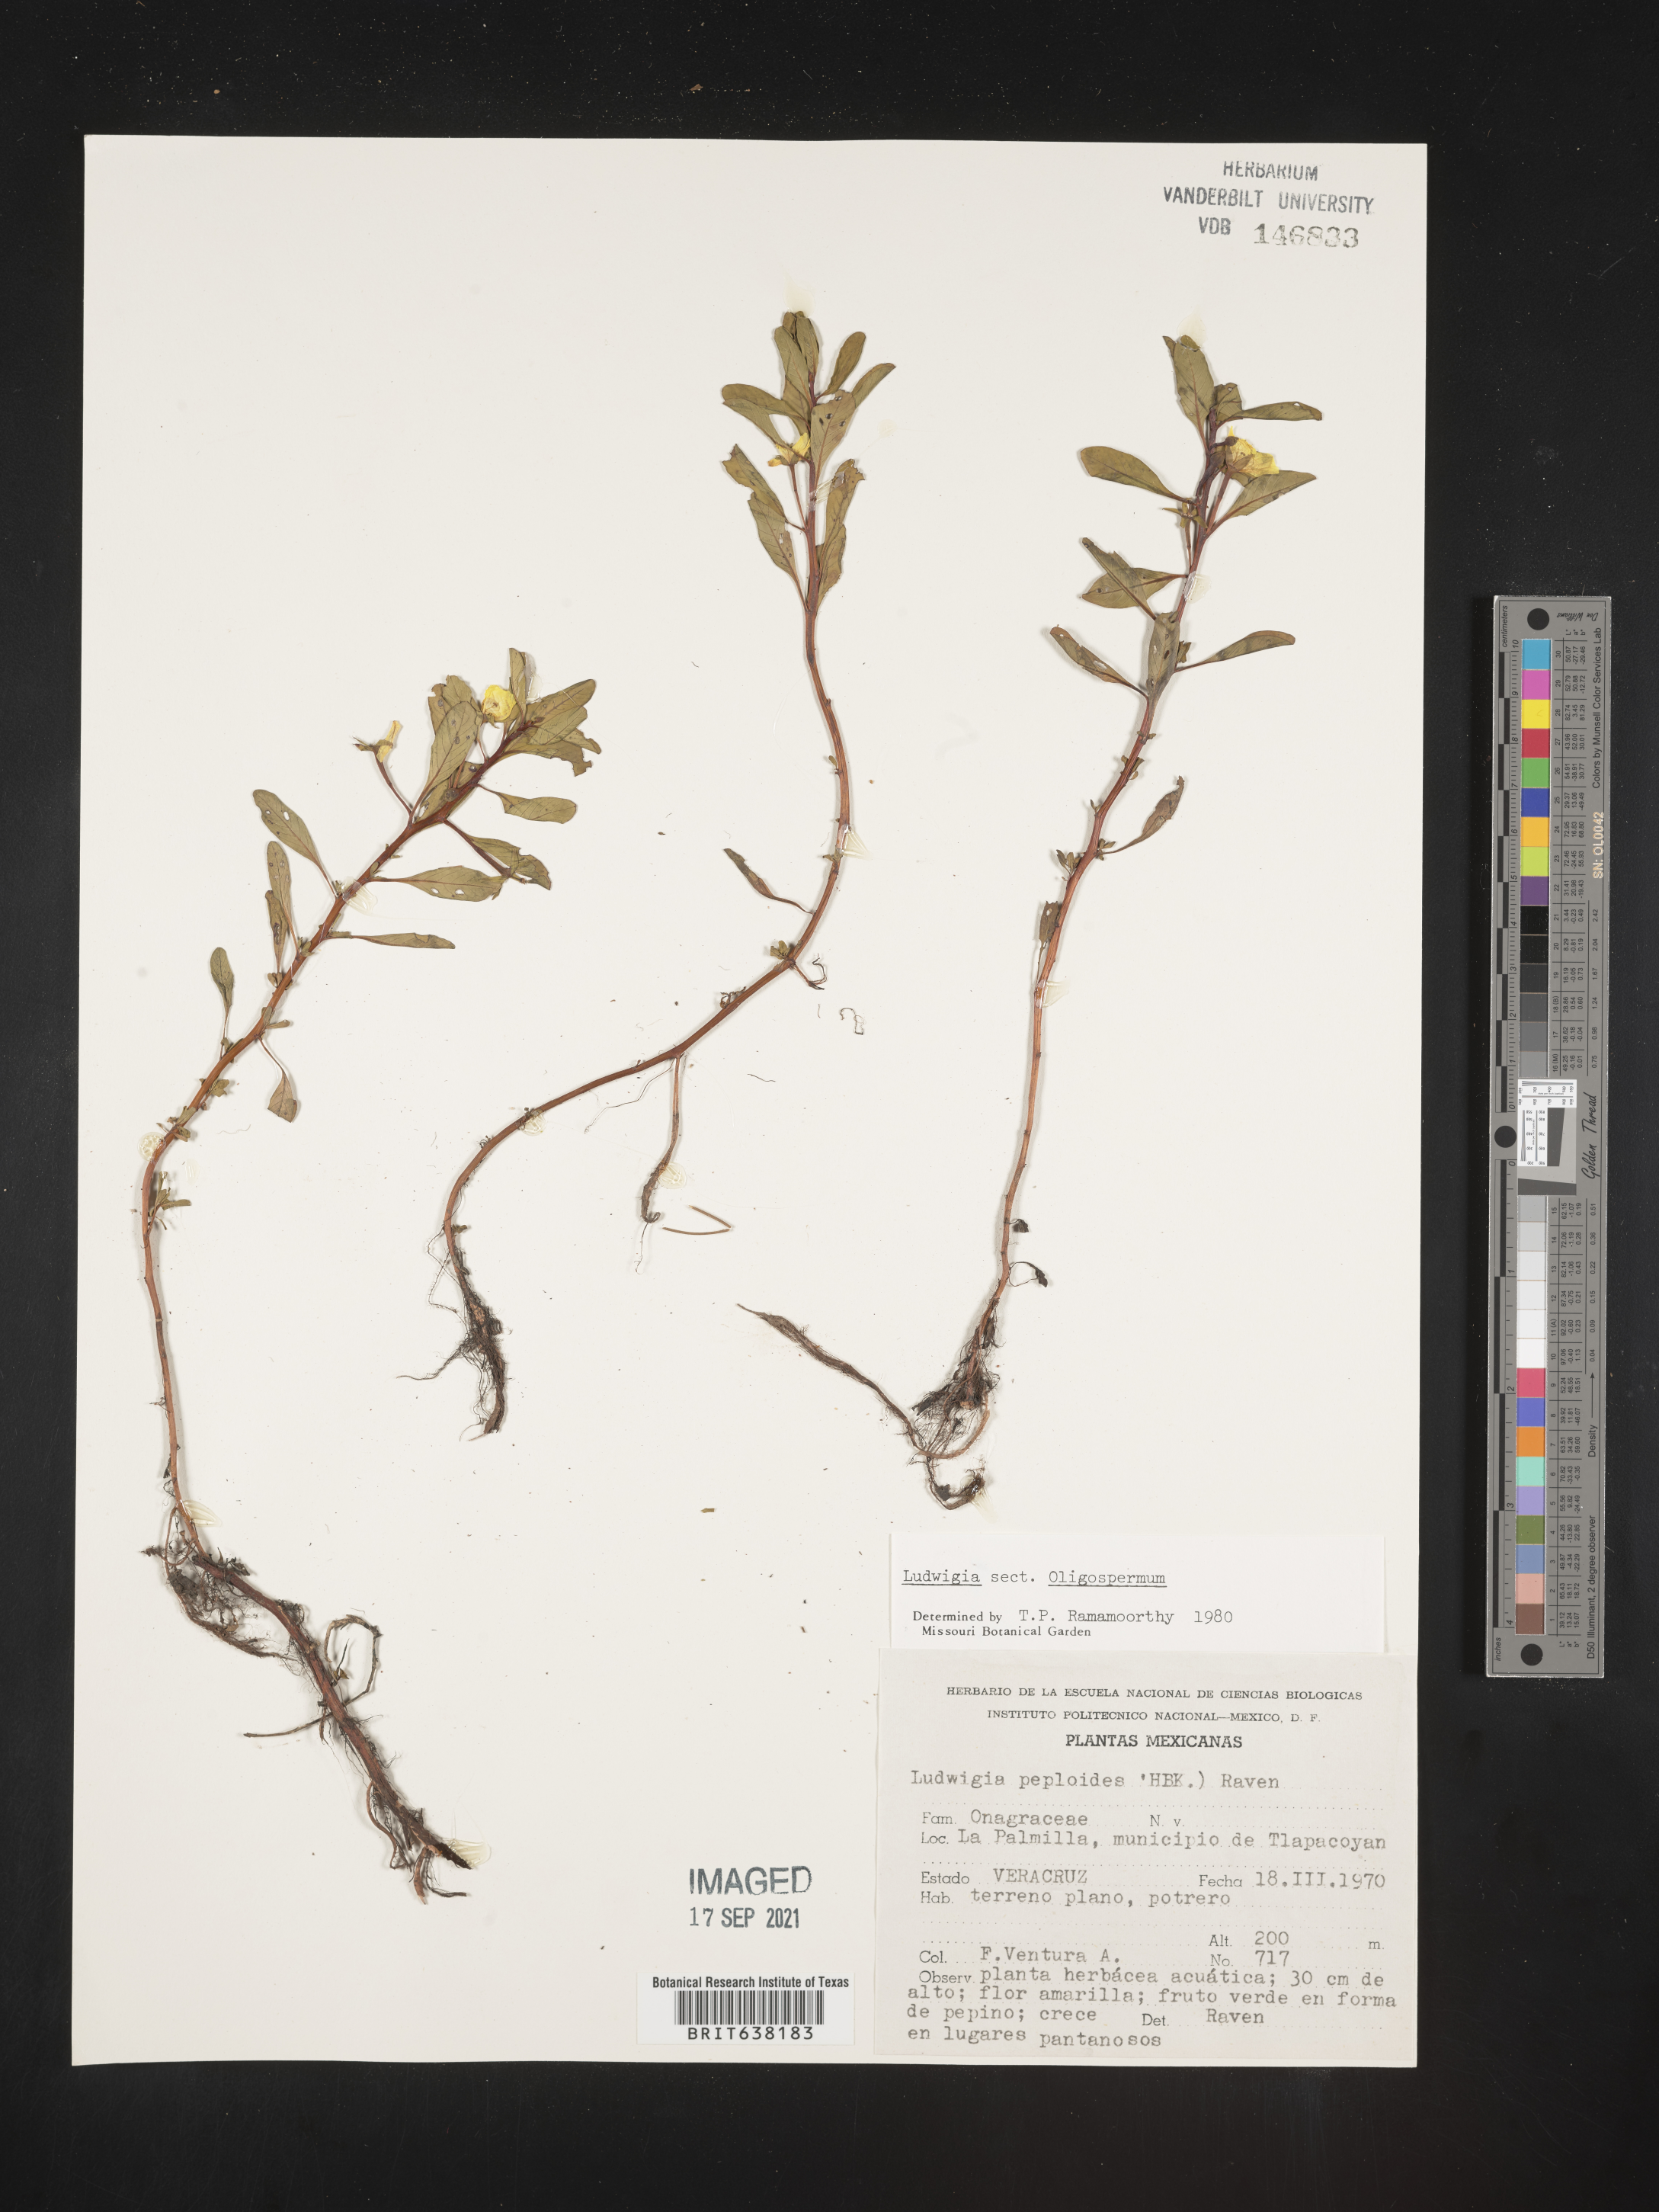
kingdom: Plantae
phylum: Tracheophyta
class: Magnoliopsida
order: Myrtales
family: Onagraceae
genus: Ludwigia
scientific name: Ludwigia
